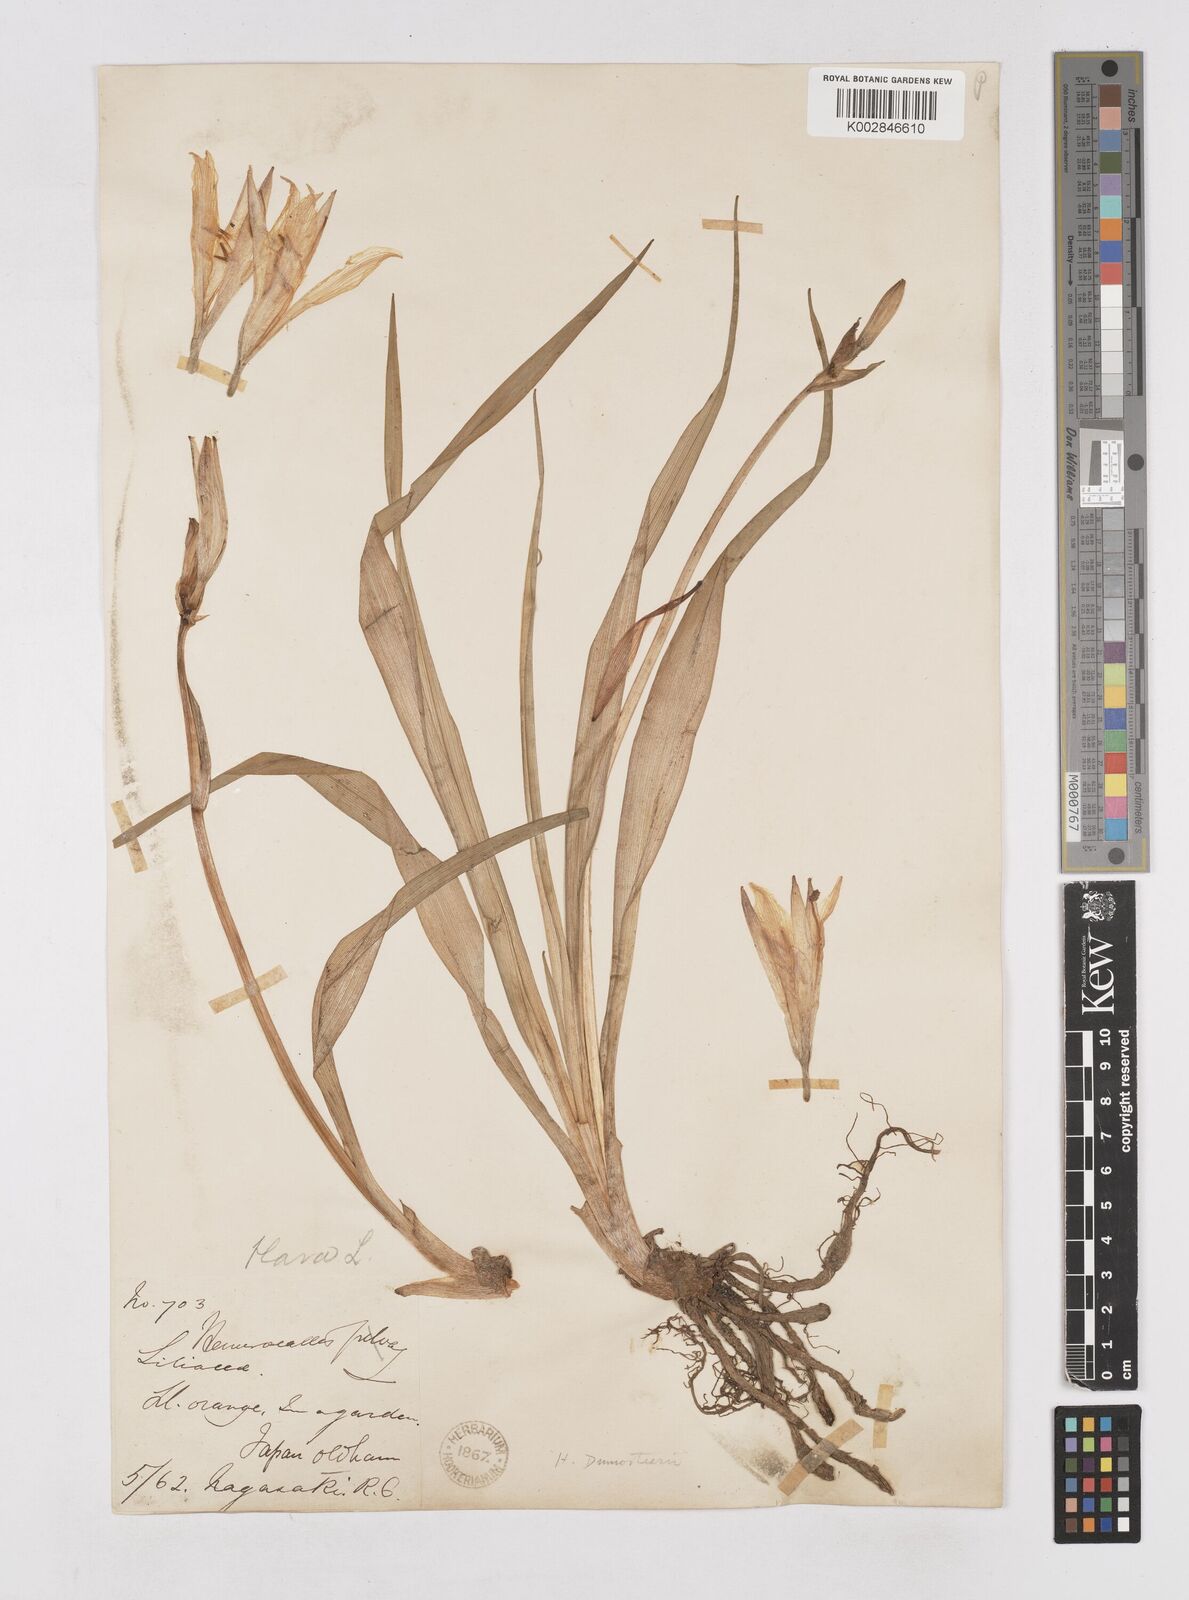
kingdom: Plantae
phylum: Tracheophyta
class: Liliopsida
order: Asparagales
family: Asphodelaceae
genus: Hemerocallis
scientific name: Hemerocallis dumortieri
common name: Dumortier's day-lily
